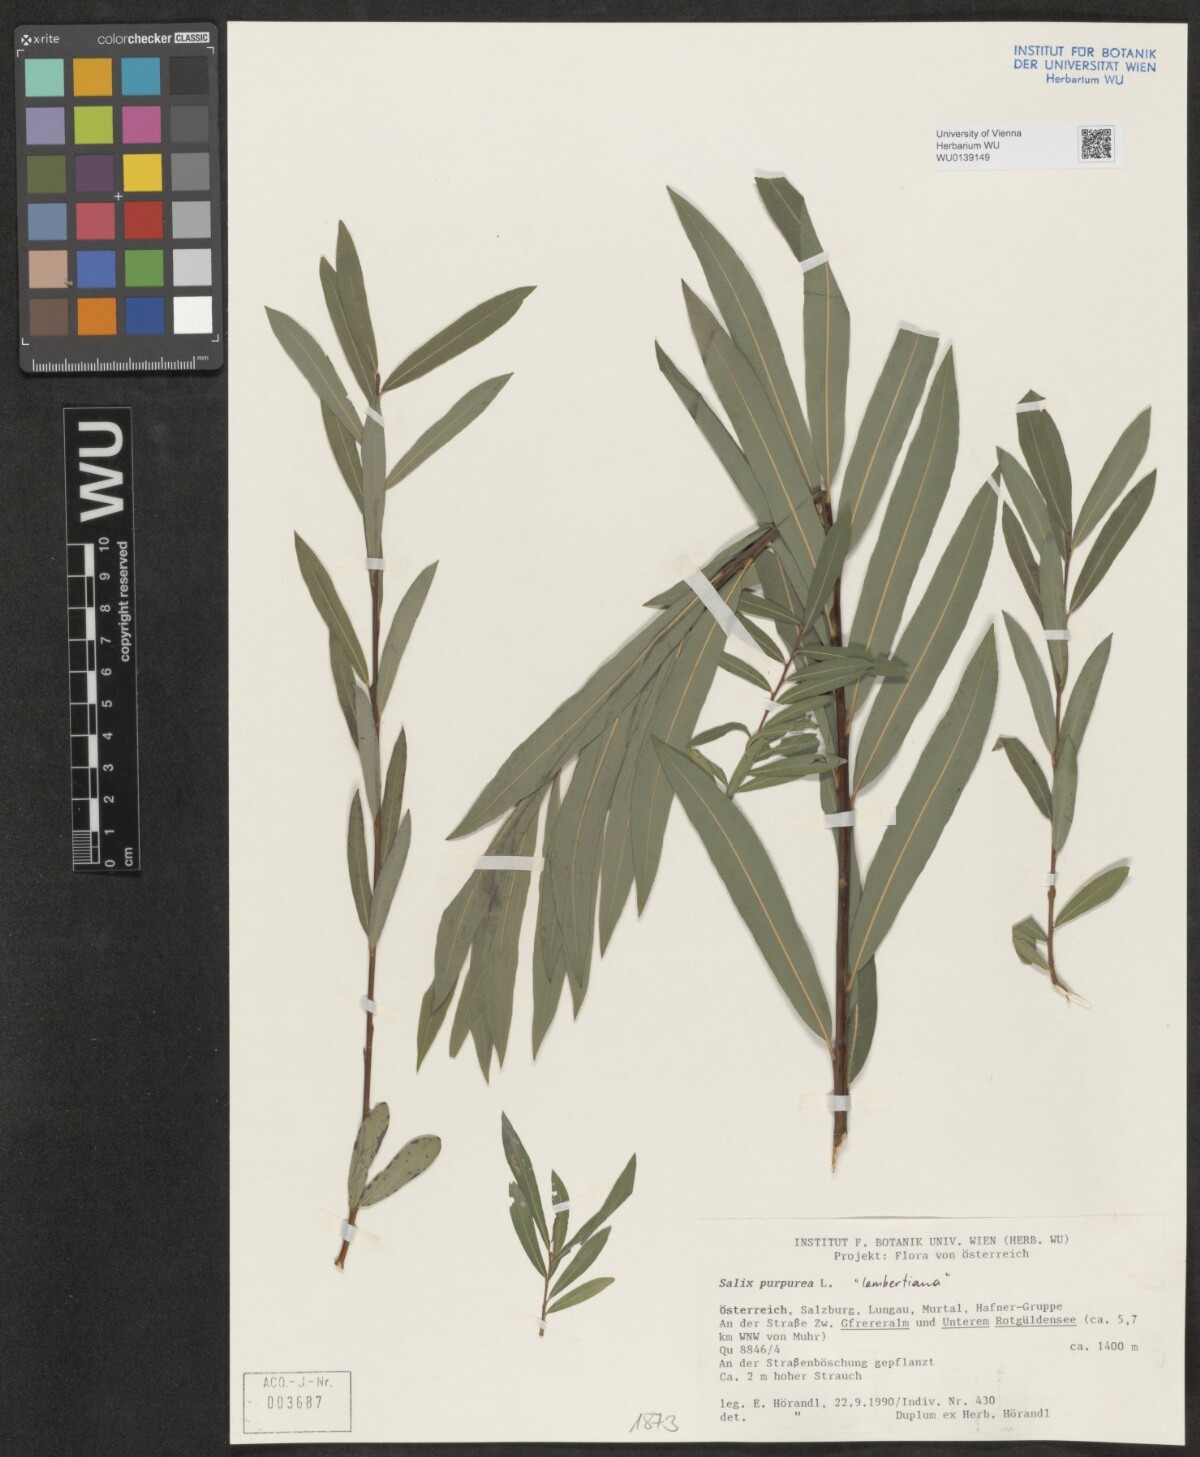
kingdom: Plantae
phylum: Tracheophyta
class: Magnoliopsida
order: Malpighiales
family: Salicaceae
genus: Salix
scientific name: Salix lambertiana
